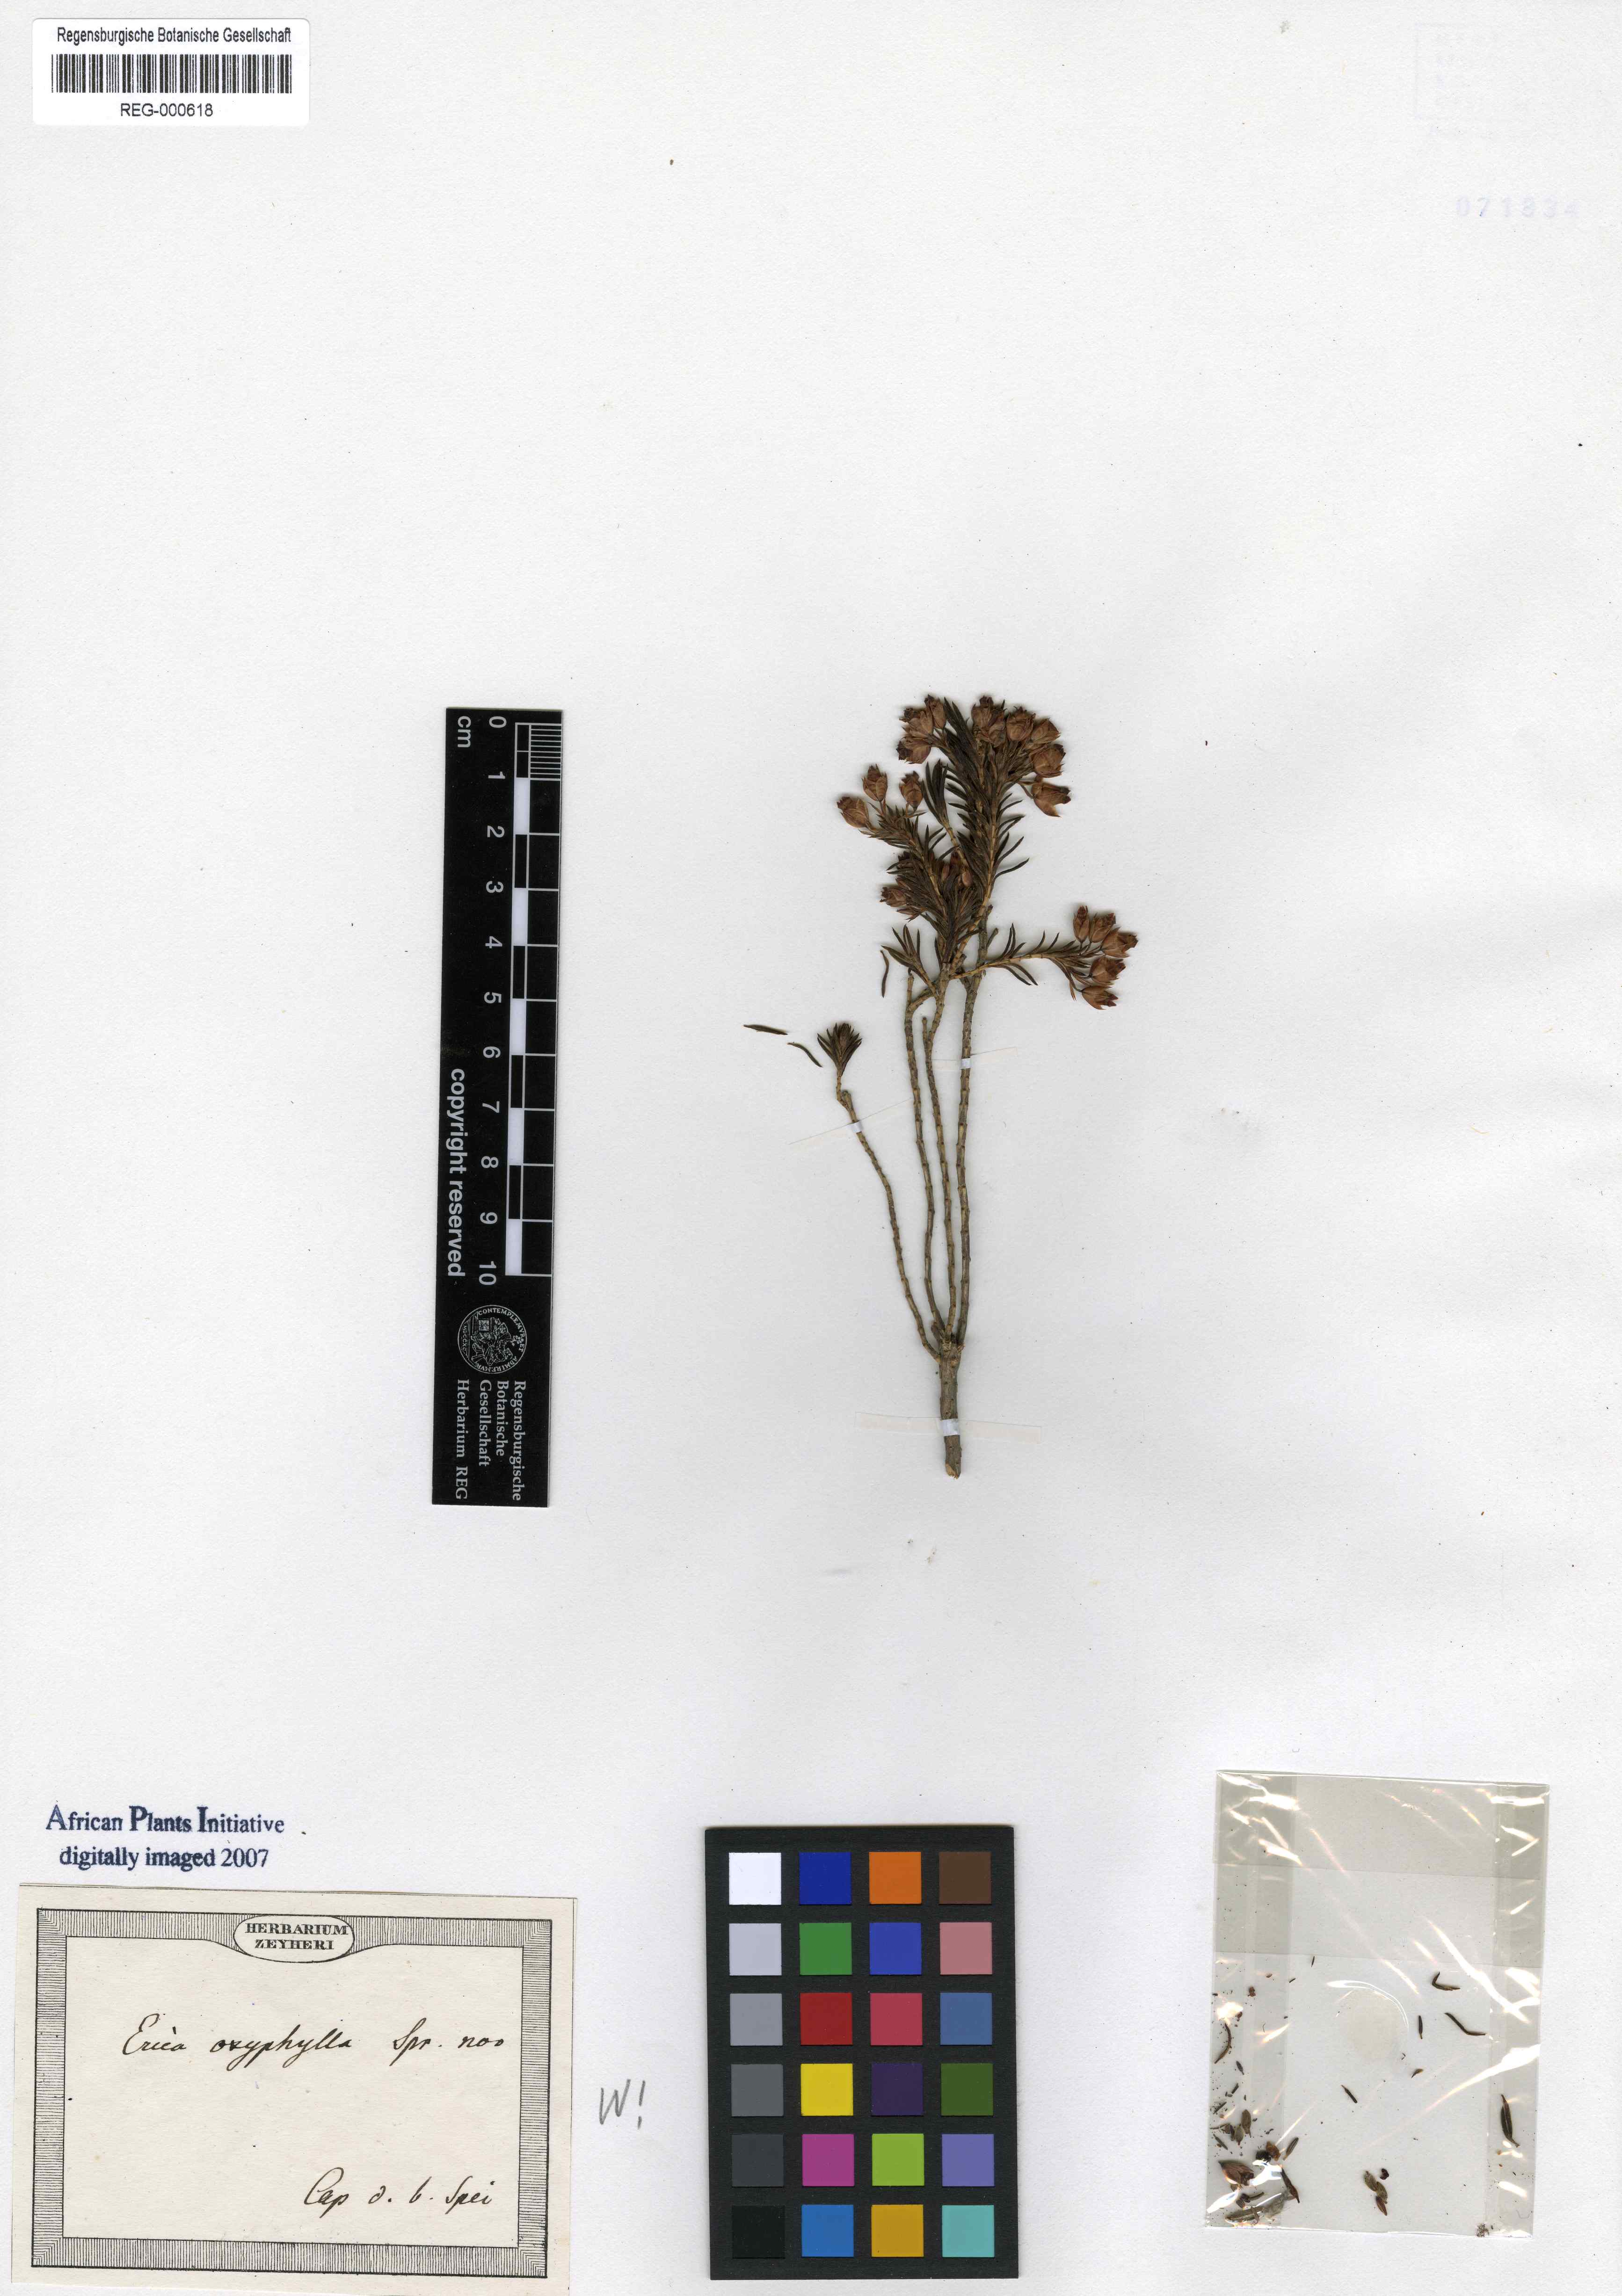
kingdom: Plantae
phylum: Tracheophyta
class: Magnoliopsida
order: Ericales
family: Ericaceae
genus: Erica
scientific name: Erica
